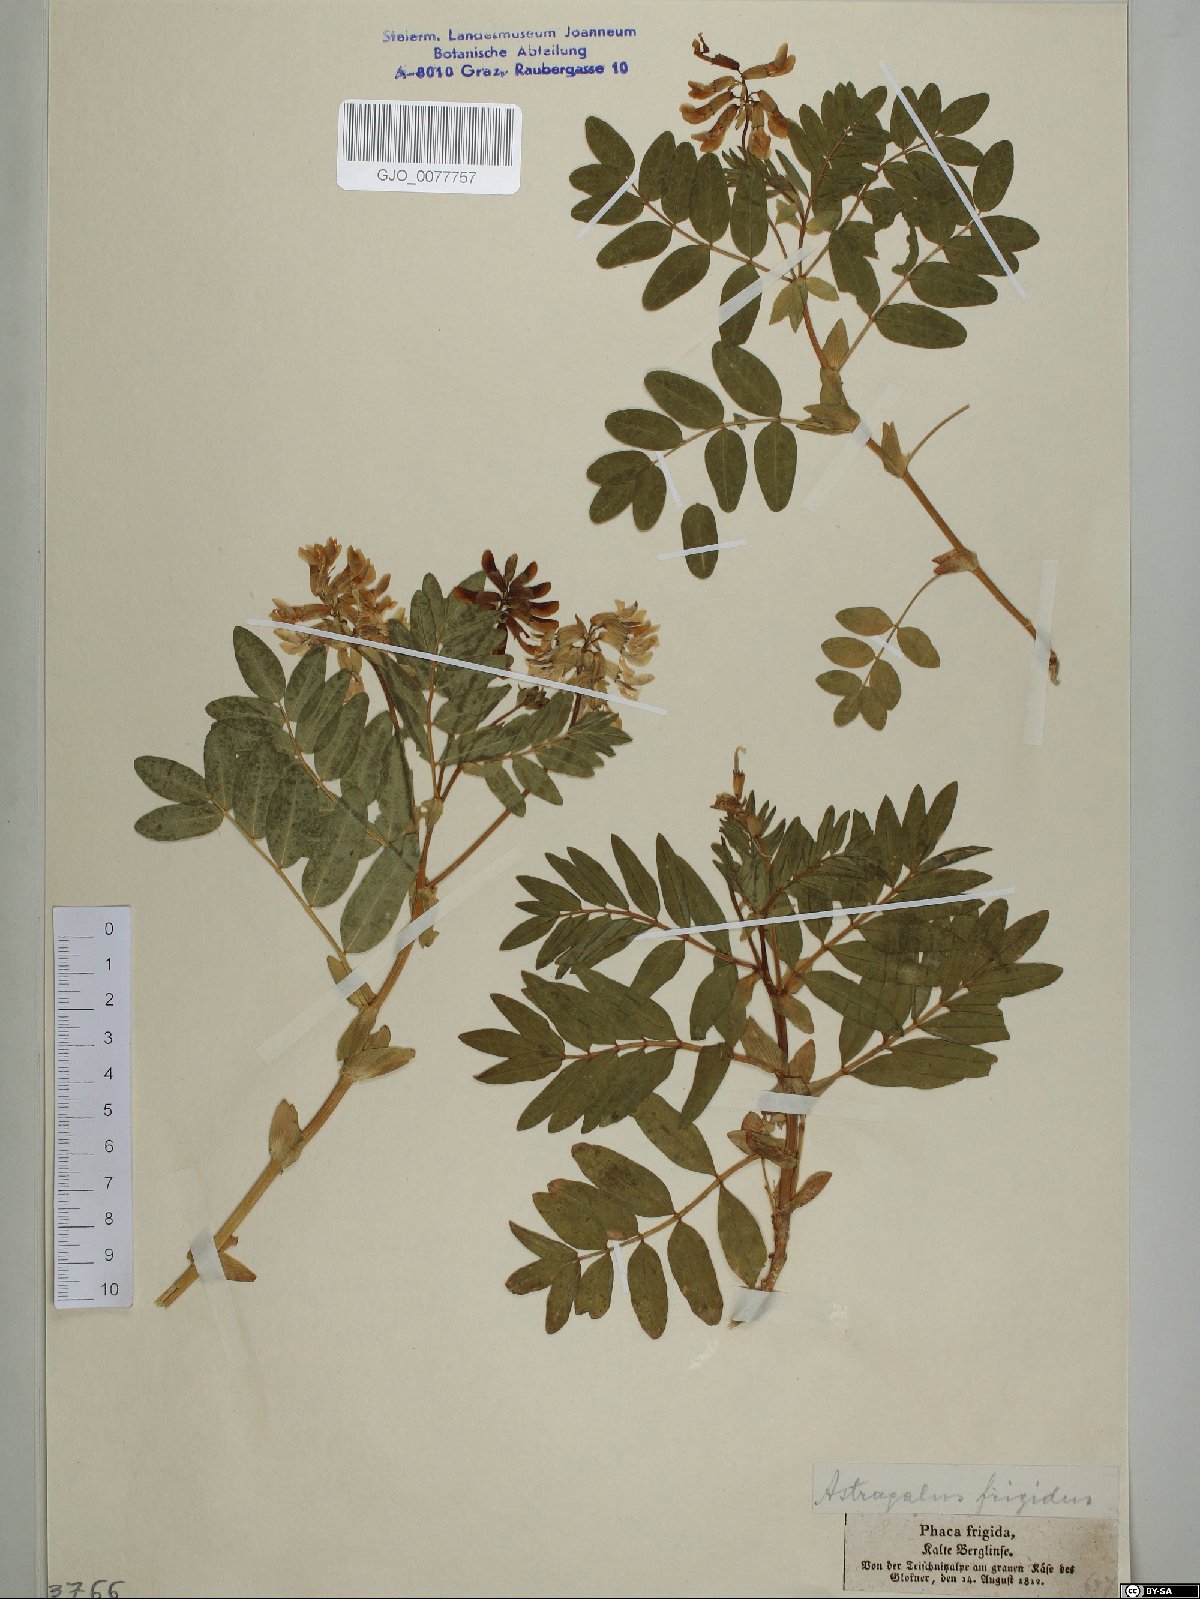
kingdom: Plantae
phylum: Tracheophyta
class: Magnoliopsida
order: Fabales
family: Fabaceae
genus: Astragalus
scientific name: Astragalus frigidus
